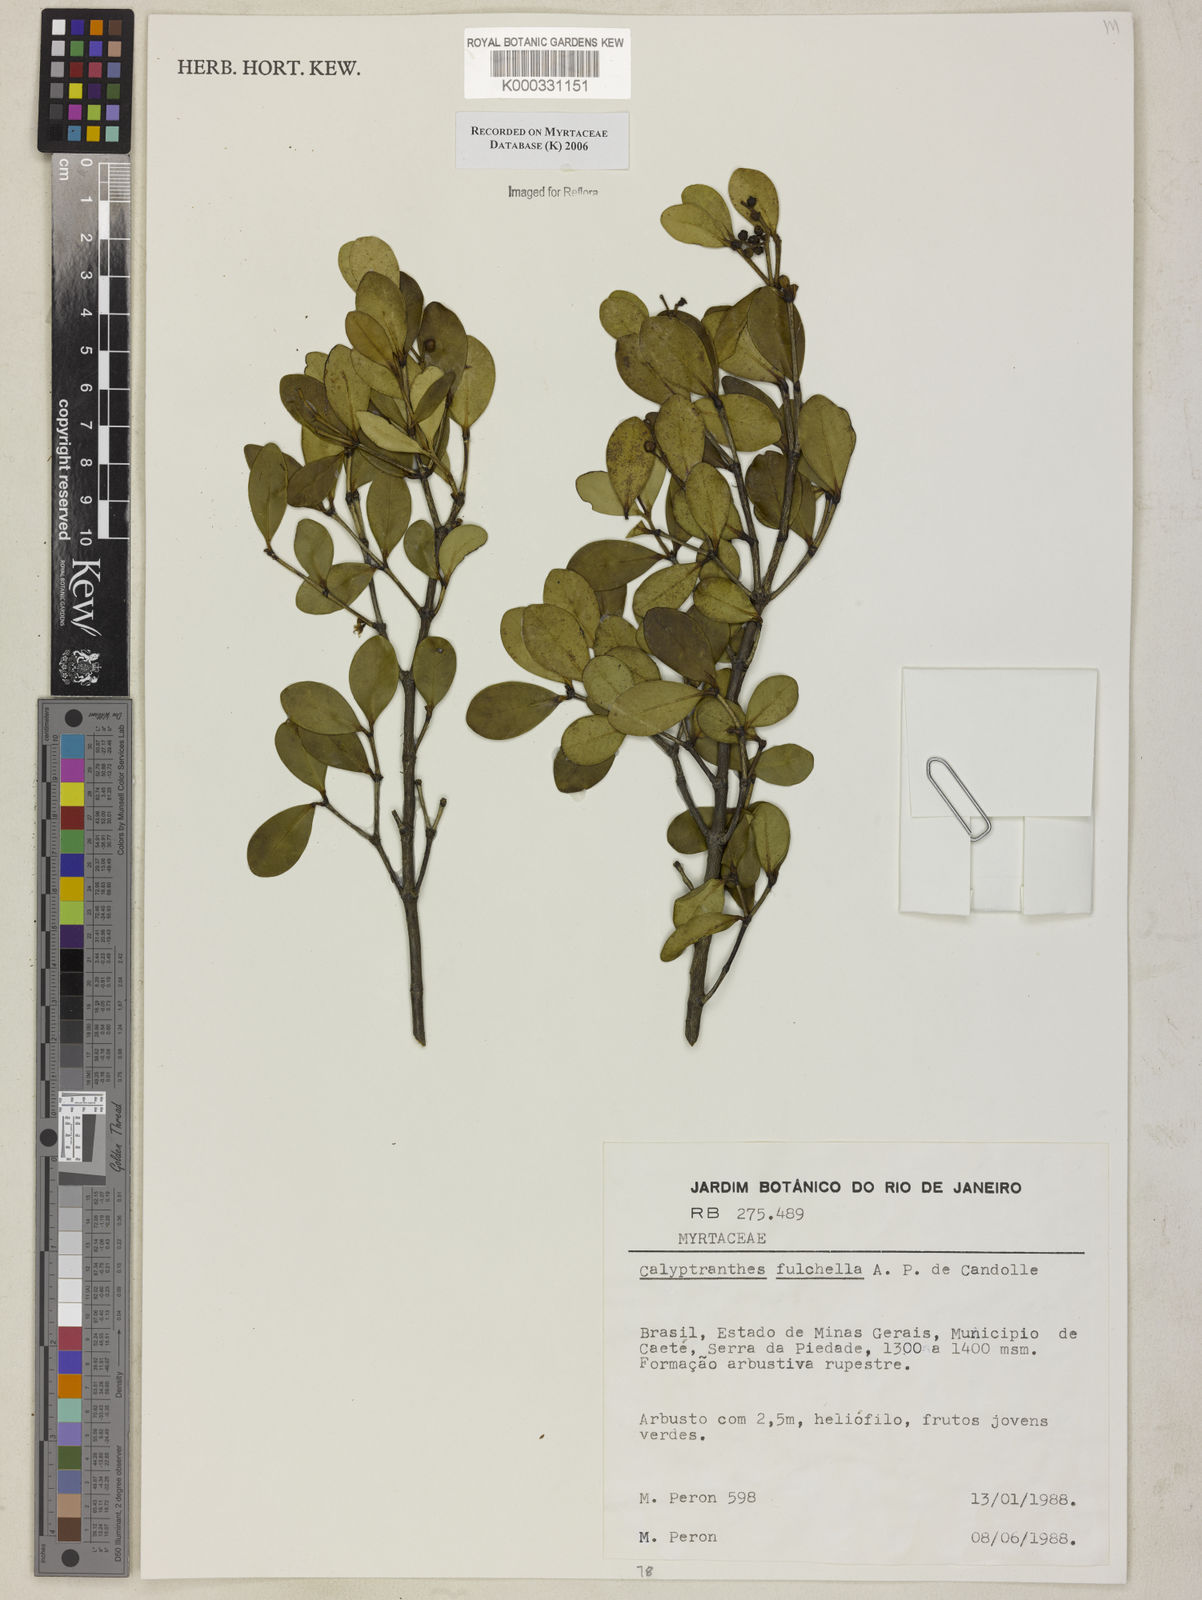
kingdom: Plantae
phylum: Tracheophyta
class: Magnoliopsida
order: Myrtales
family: Myrtaceae
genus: Myrcia
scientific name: Myrcia pulchella
